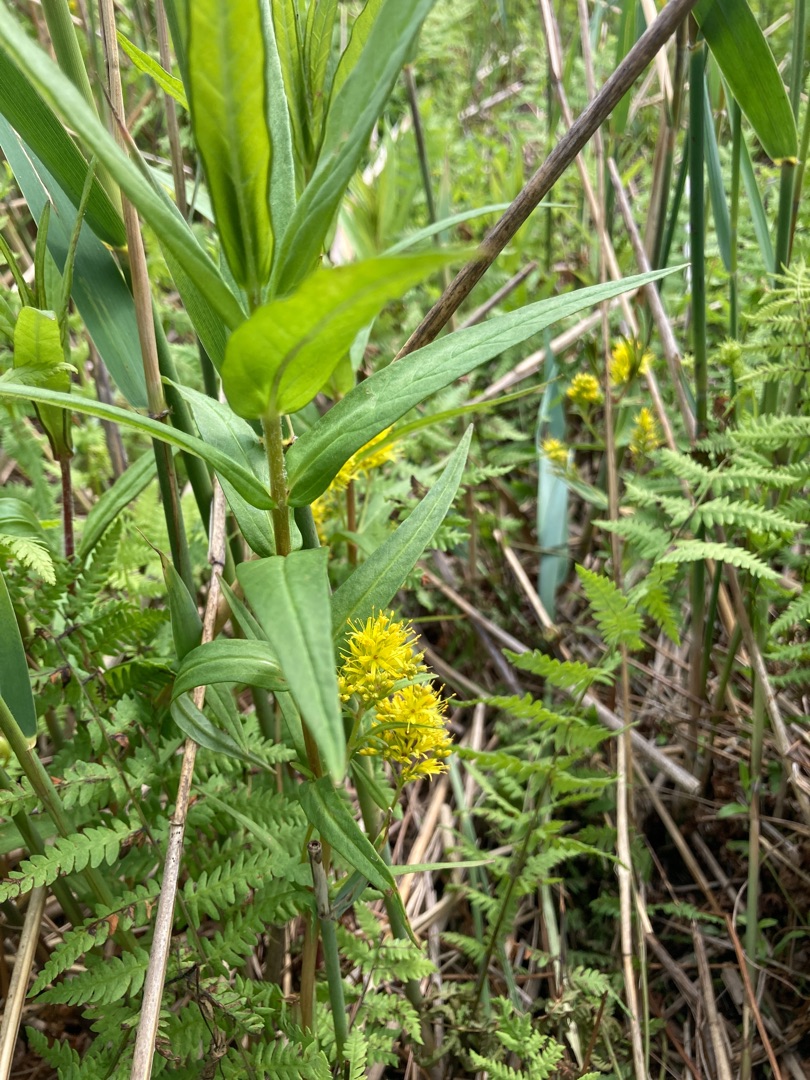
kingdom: Plantae
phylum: Tracheophyta
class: Magnoliopsida
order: Ericales
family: Primulaceae
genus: Lysimachia
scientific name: Lysimachia thyrsiflora
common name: Dusk-fredløs
